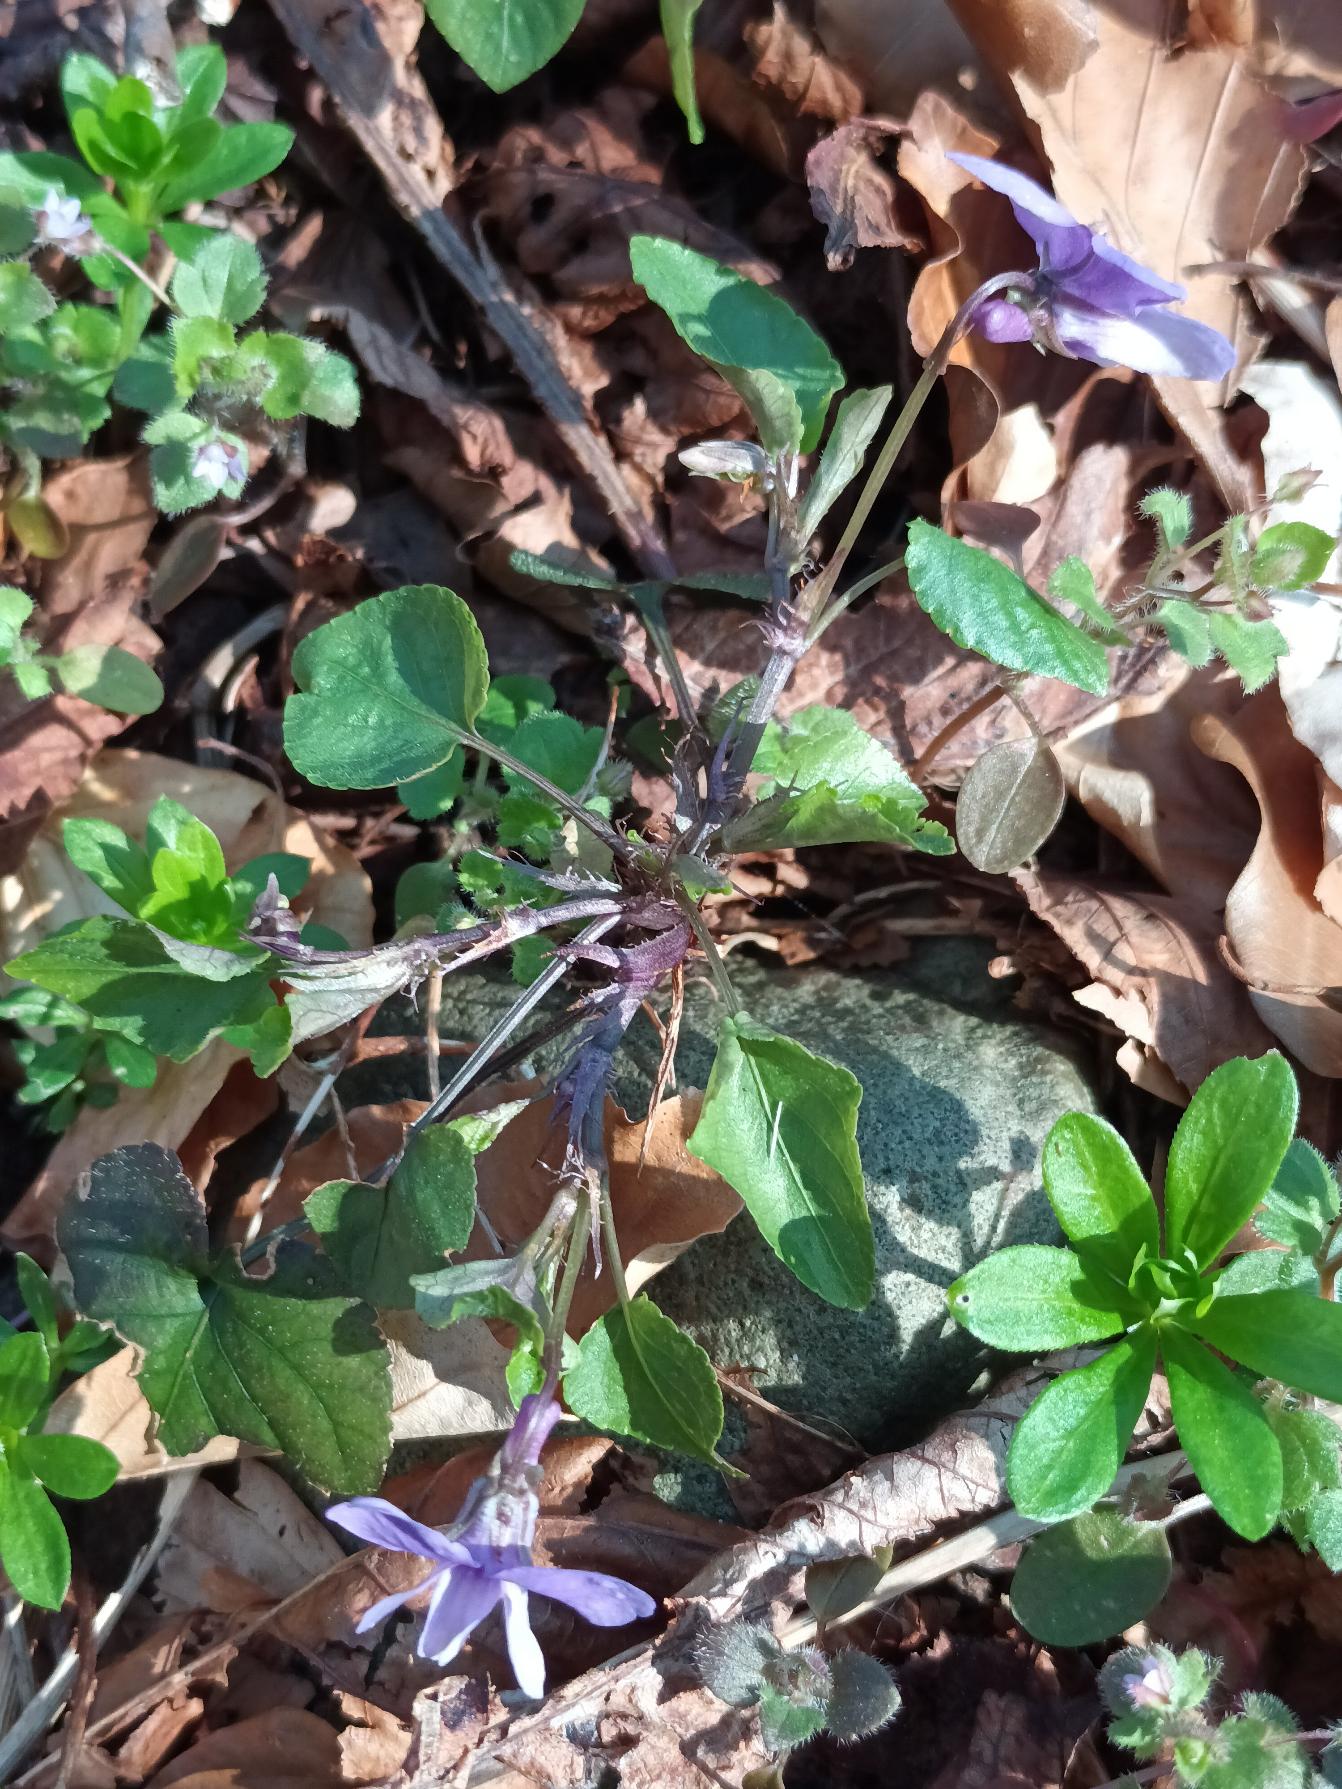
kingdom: Plantae
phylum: Tracheophyta
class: Magnoliopsida
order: Malpighiales
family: Violaceae
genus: Viola
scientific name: Viola reichenbachiana
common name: Skov-viol
